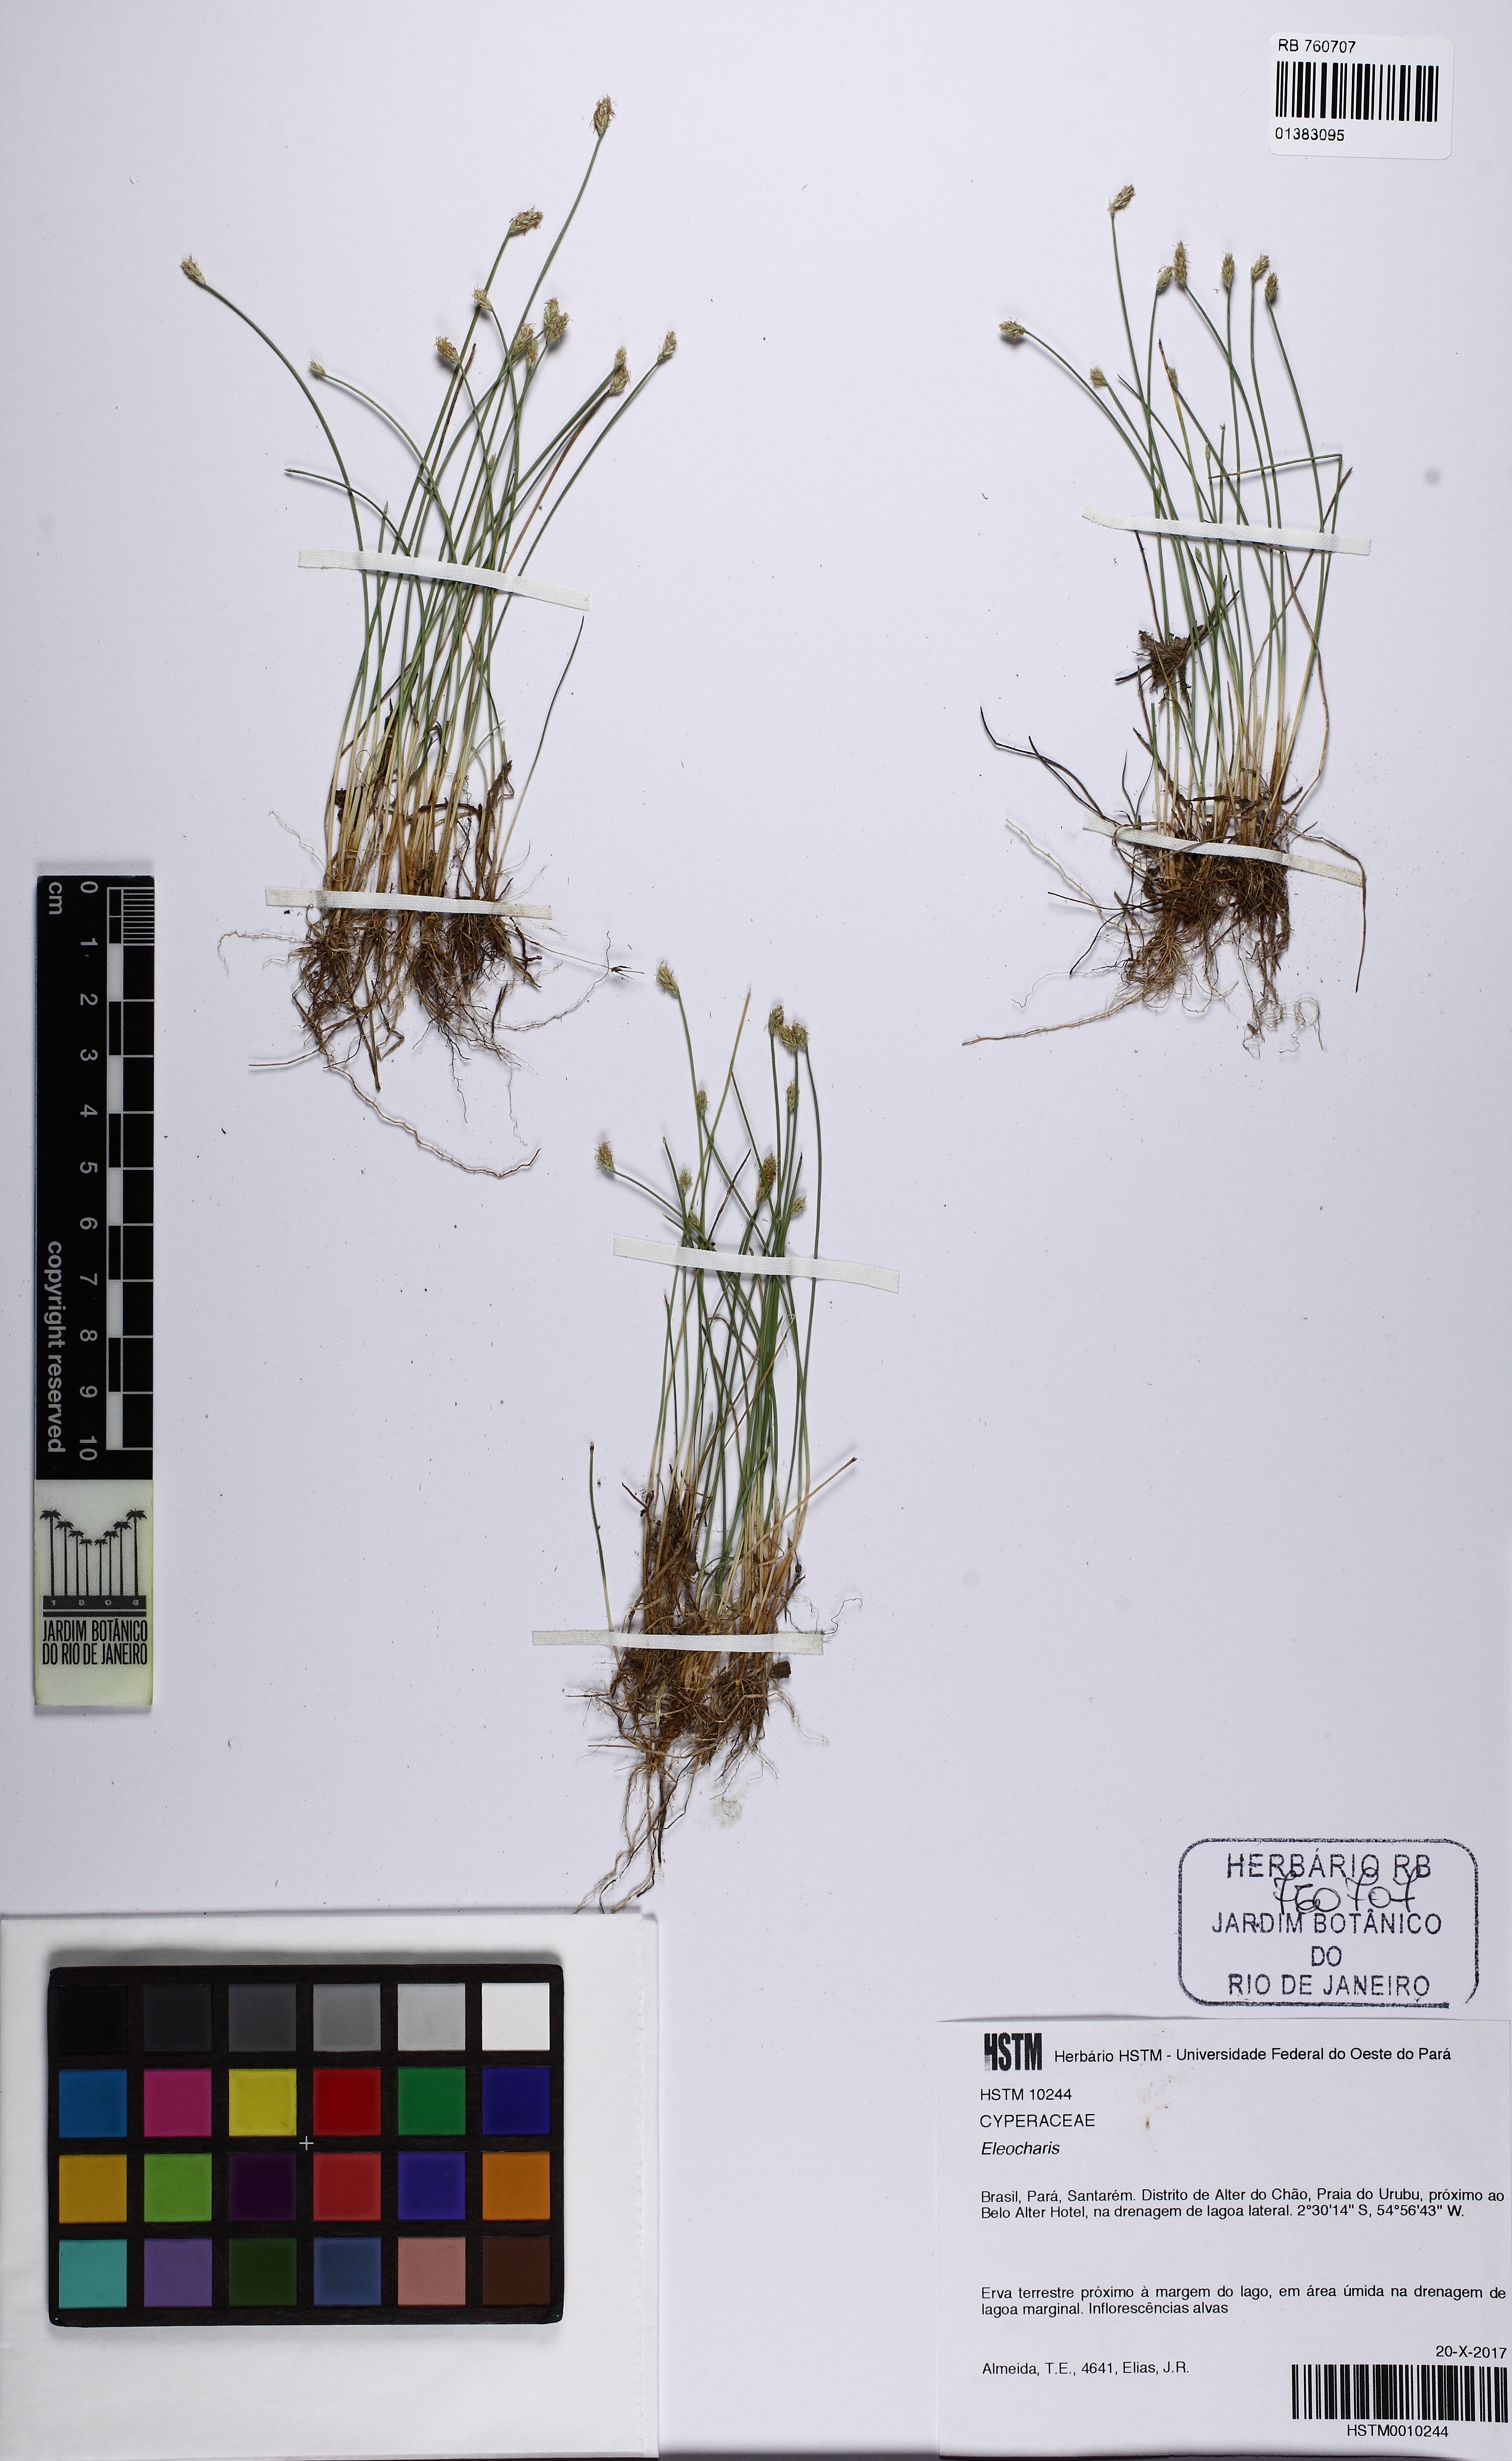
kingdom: Plantae
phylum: Tracheophyta
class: Liliopsida
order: Poales
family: Cyperaceae
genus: Eleocharis
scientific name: Eleocharis
